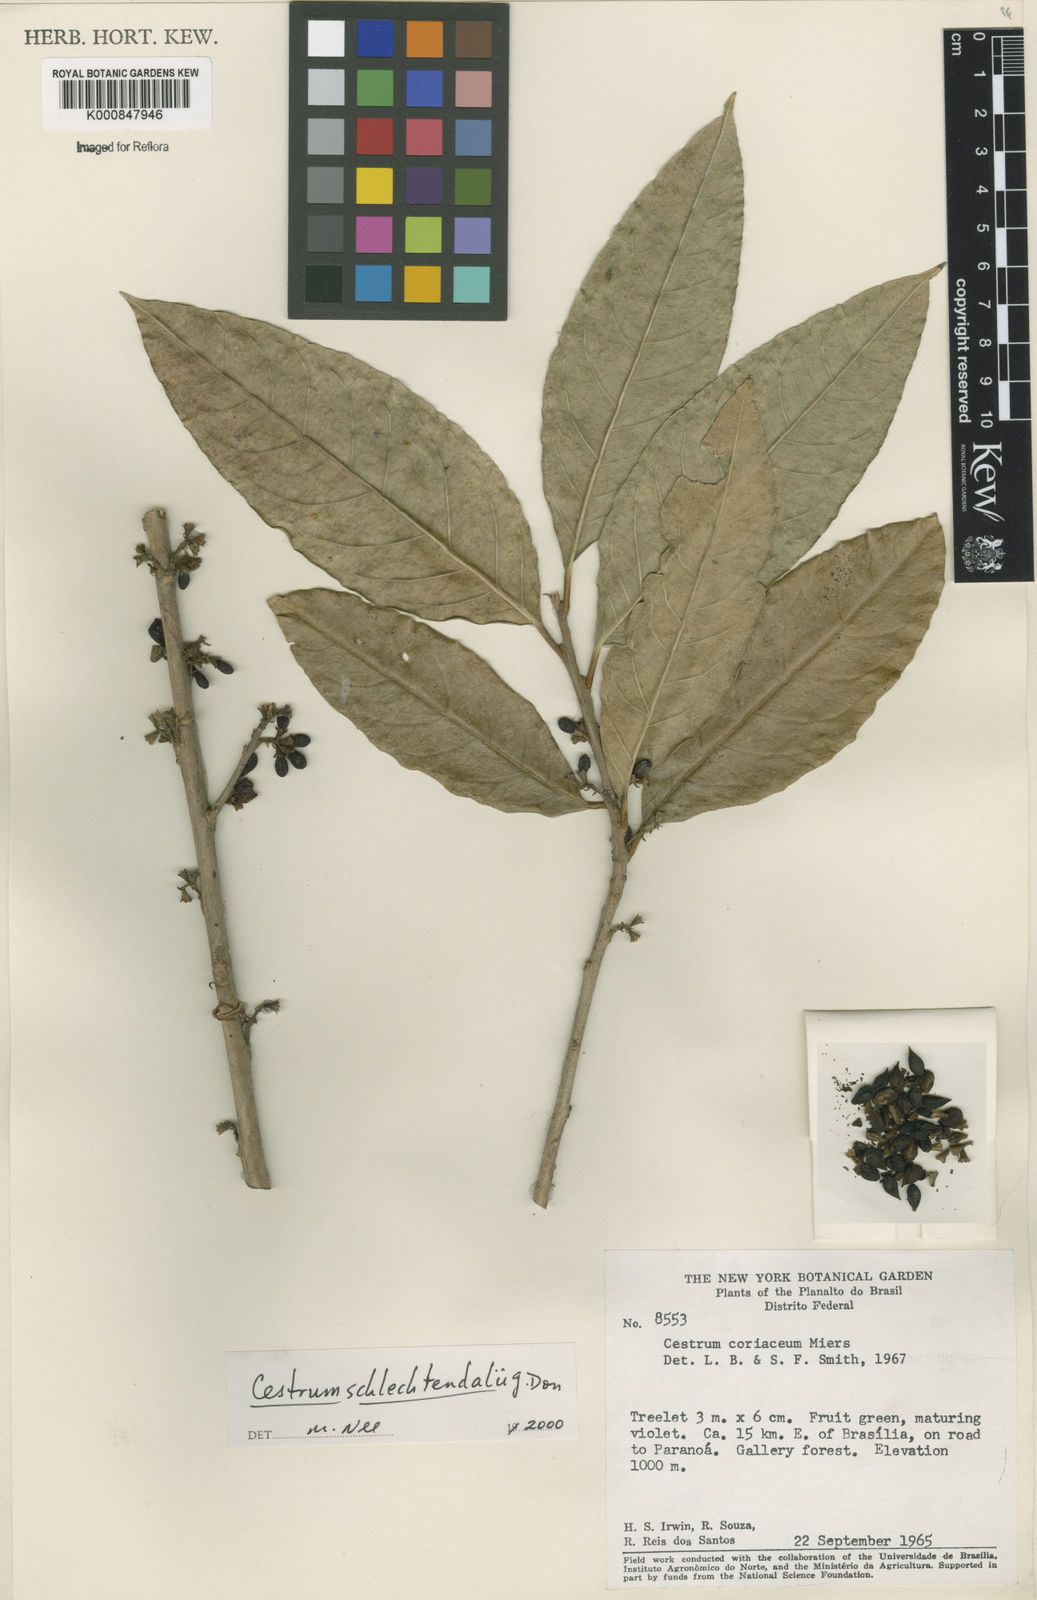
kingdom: Plantae
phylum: Tracheophyta
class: Magnoliopsida
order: Solanales
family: Solanaceae
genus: Cestrum
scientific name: Cestrum schlechtendalii
